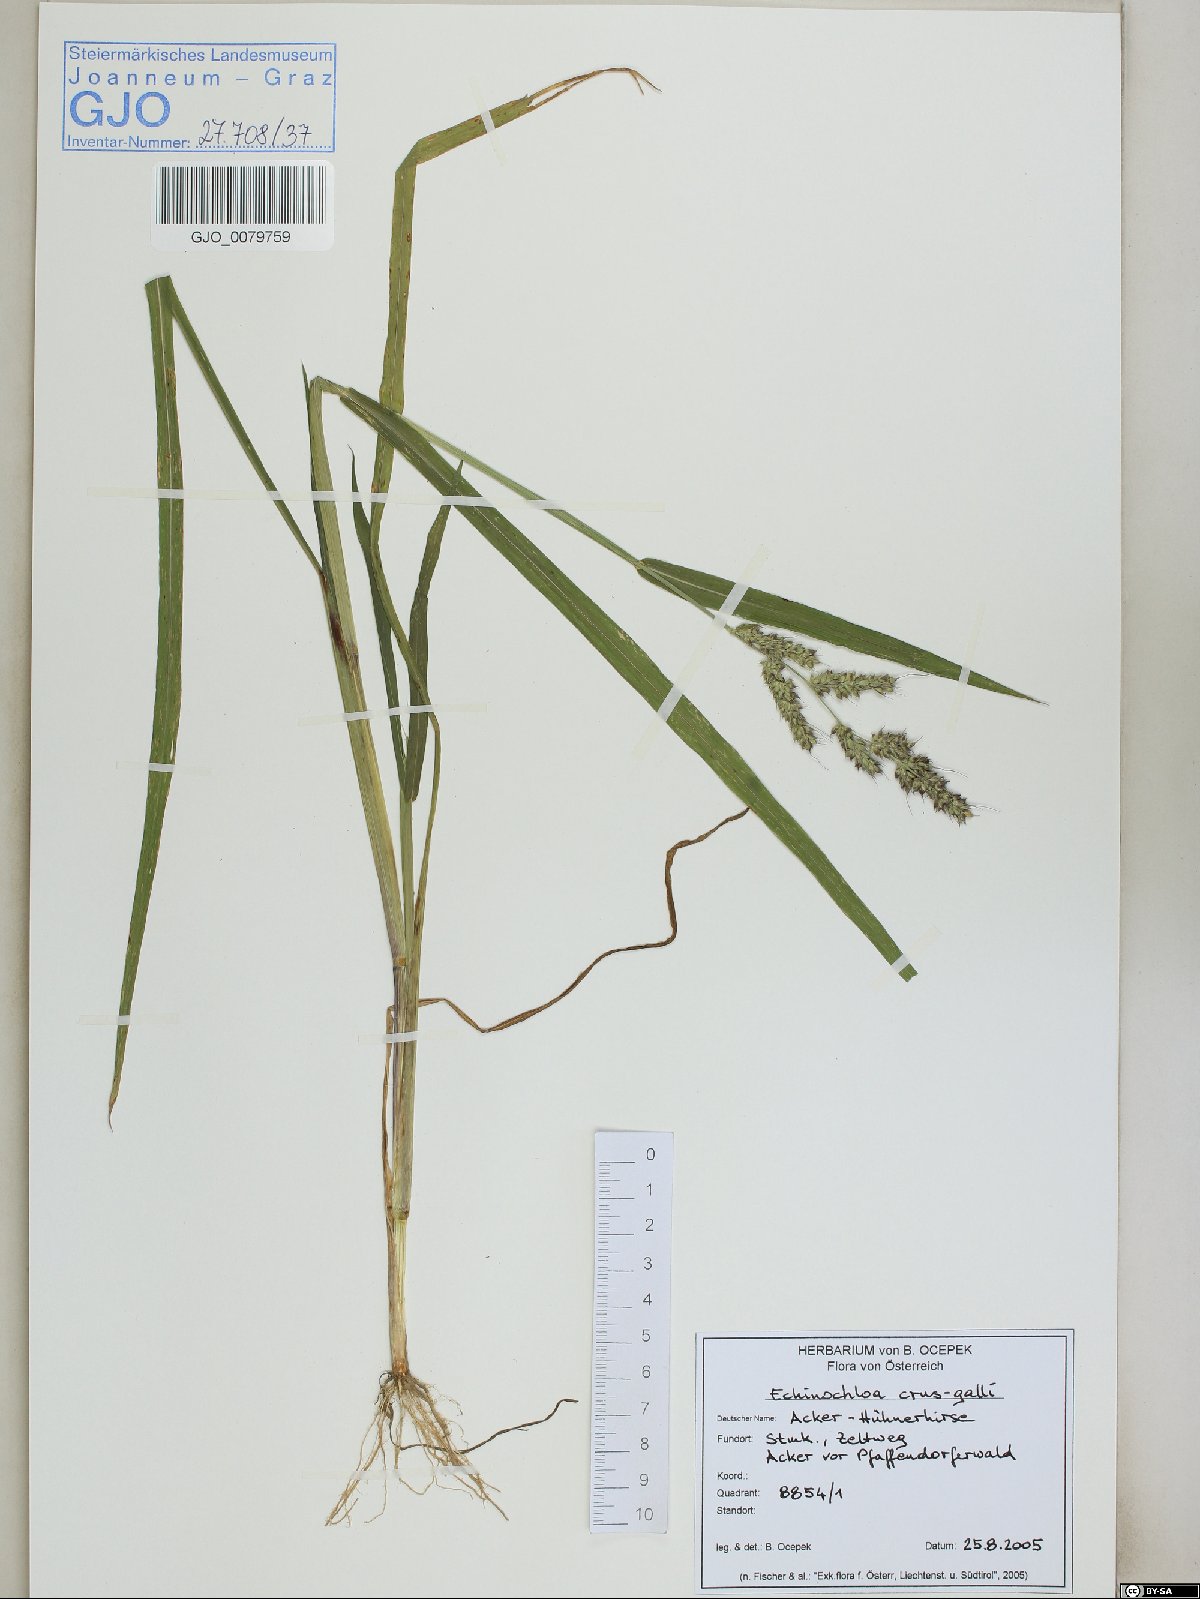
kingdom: Plantae
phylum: Tracheophyta
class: Liliopsida
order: Poales
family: Poaceae
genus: Echinochloa
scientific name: Echinochloa crus-galli
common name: Cockspur
